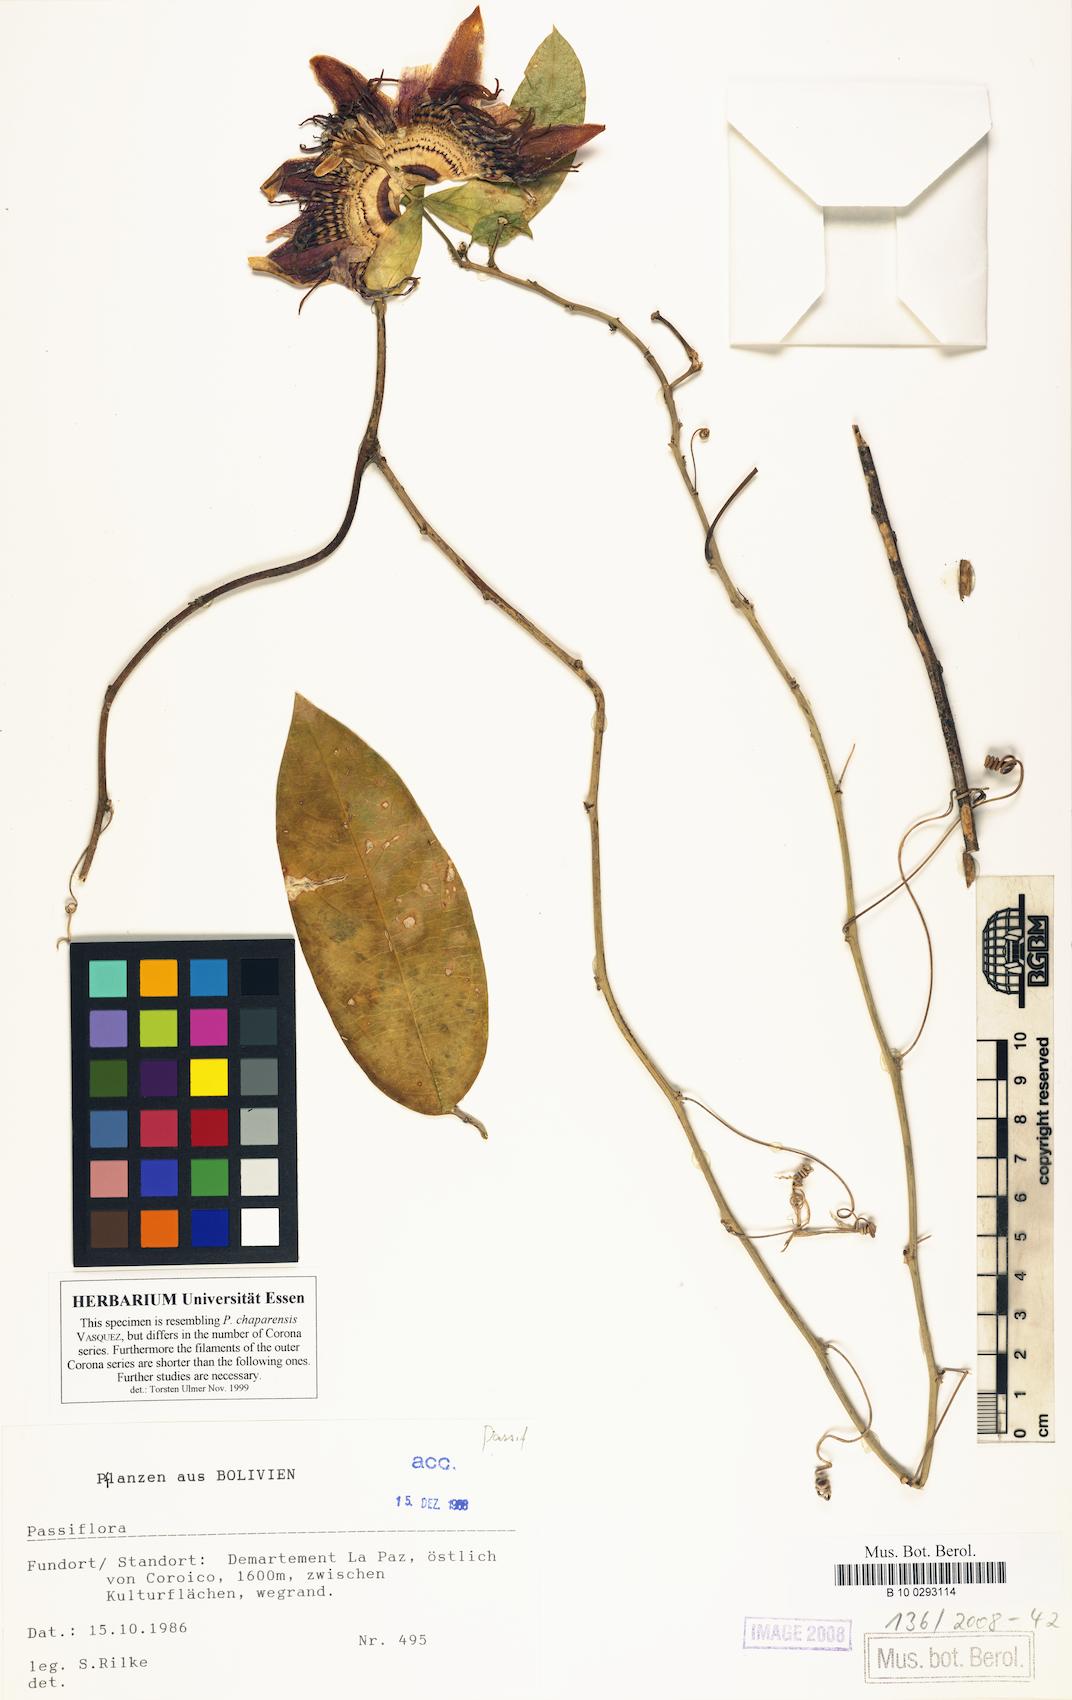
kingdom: Plantae
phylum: Tracheophyta
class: Magnoliopsida
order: Malpighiales
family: Passifloraceae
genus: Passiflora
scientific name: Passiflora
